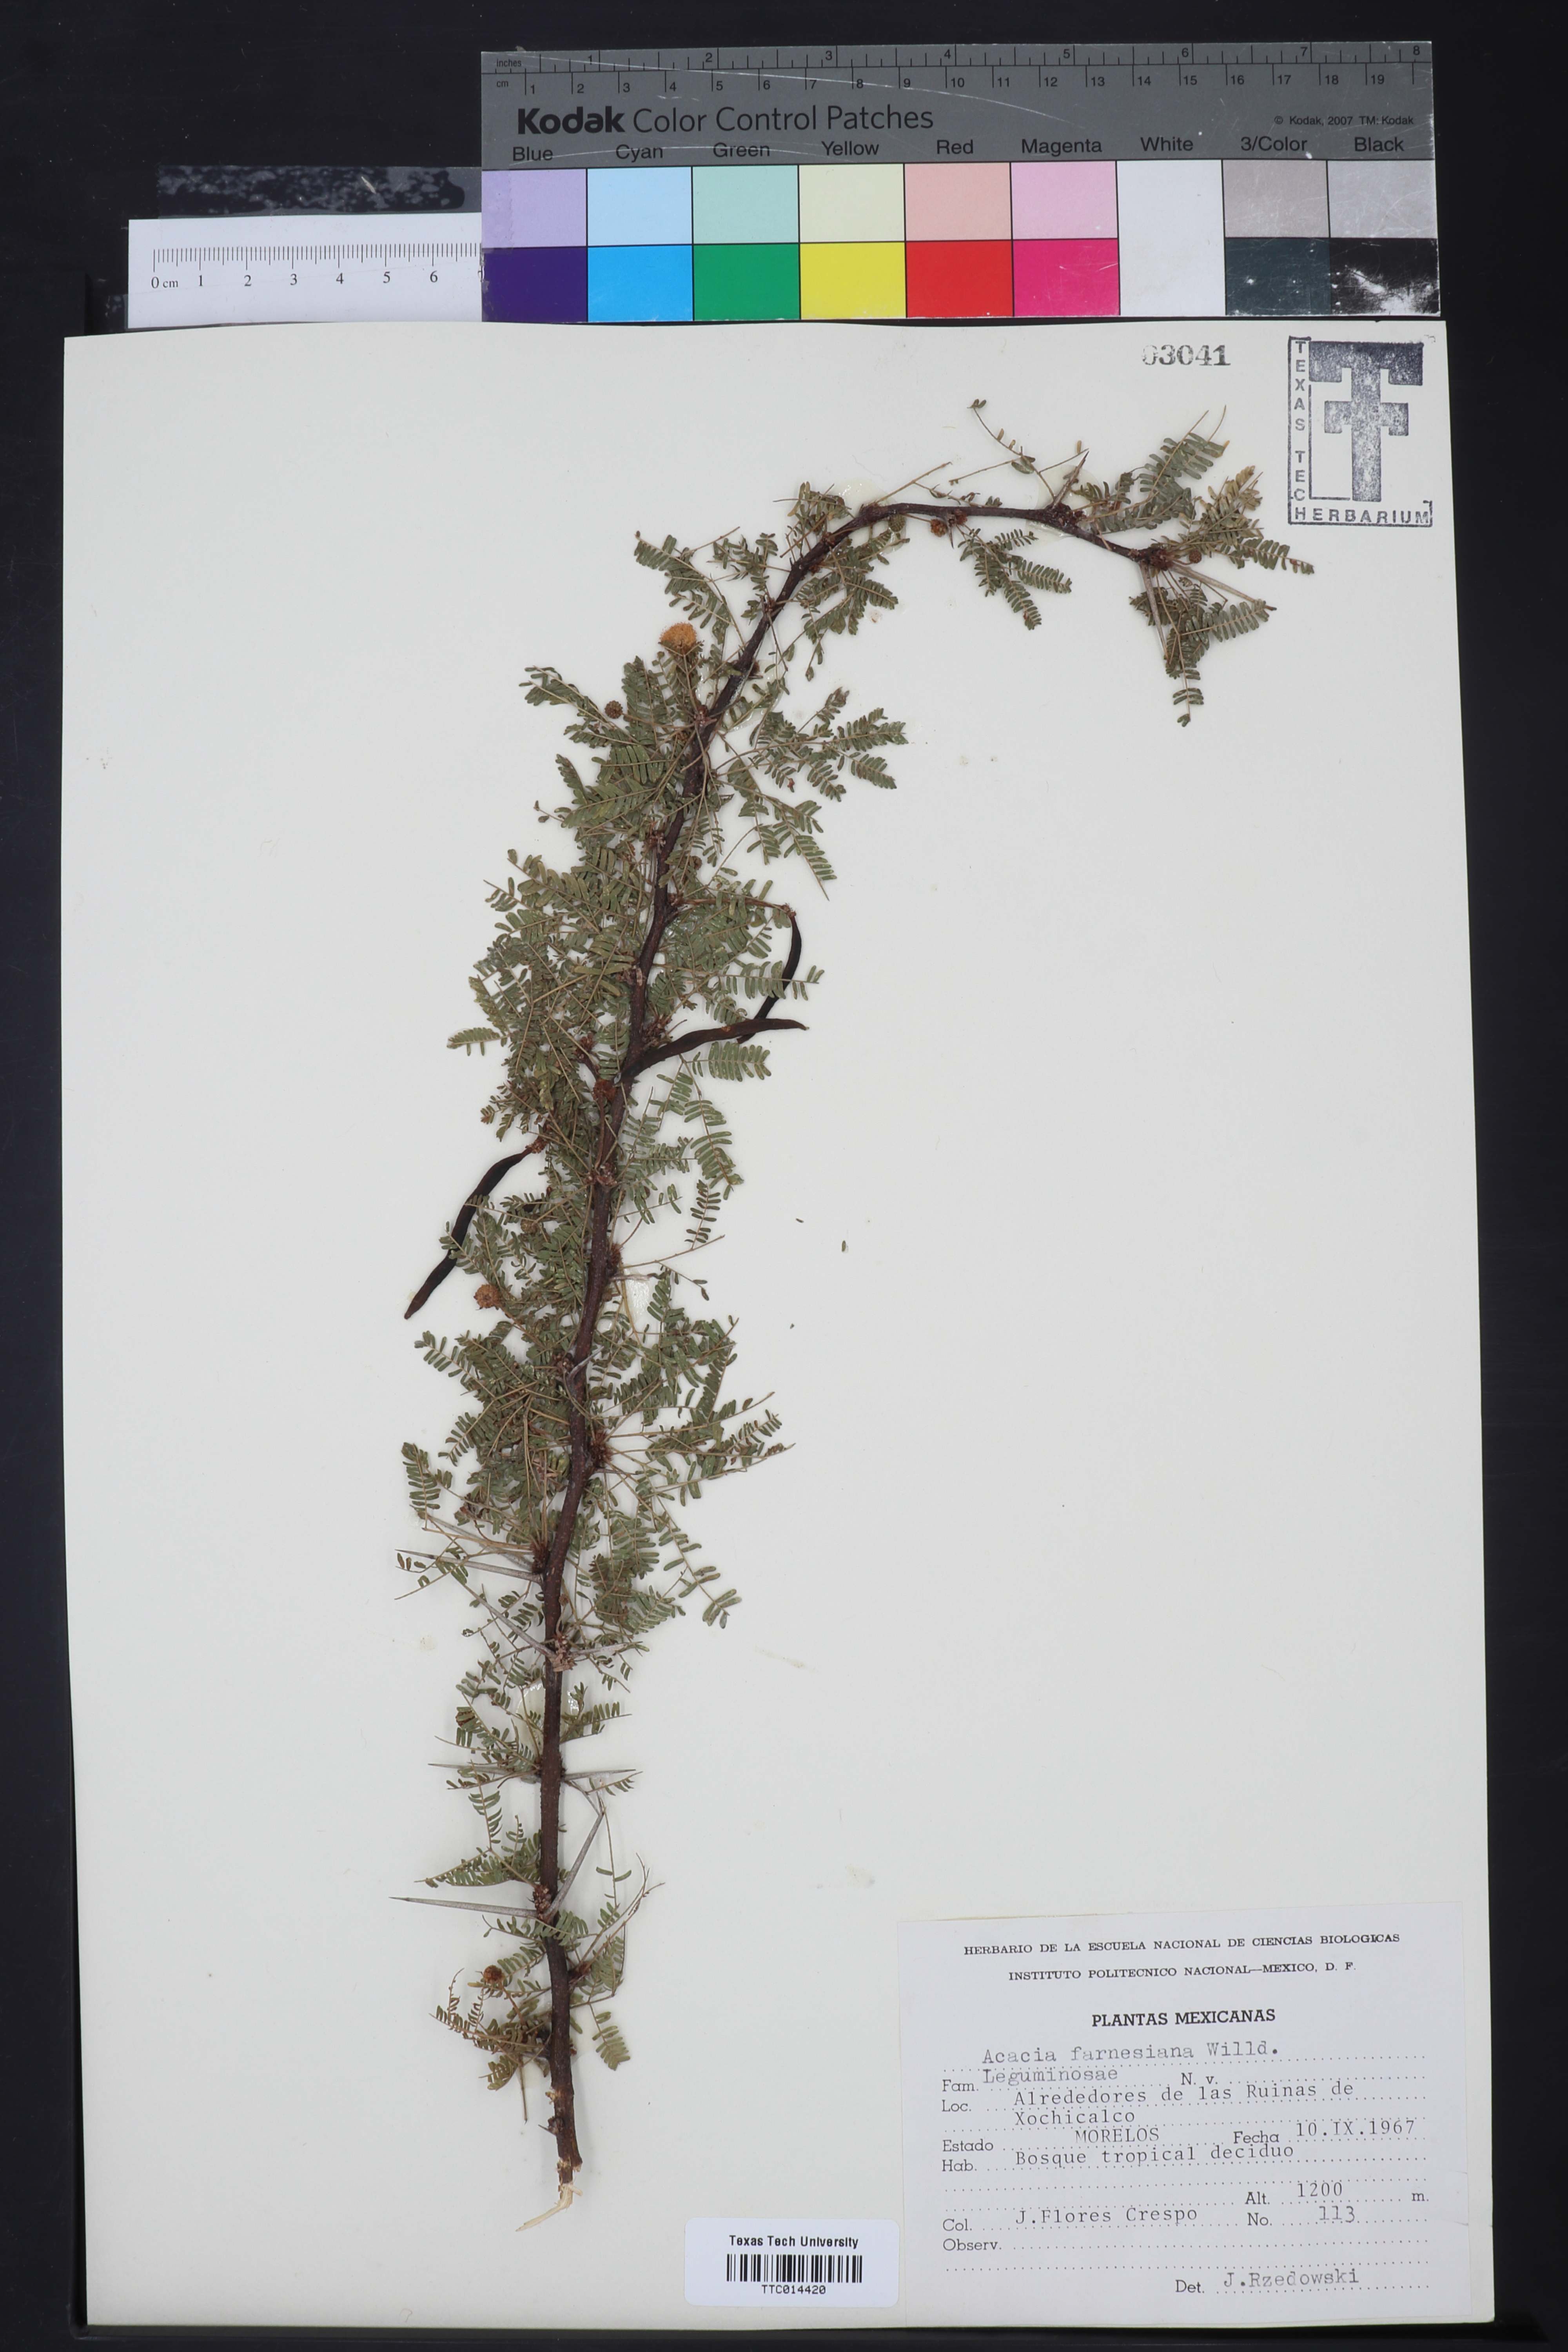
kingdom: Plantae
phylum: Tracheophyta
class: Magnoliopsida
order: Fabales
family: Fabaceae
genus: Vachellia
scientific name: Vachellia farnesiana
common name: Sweet acacia
